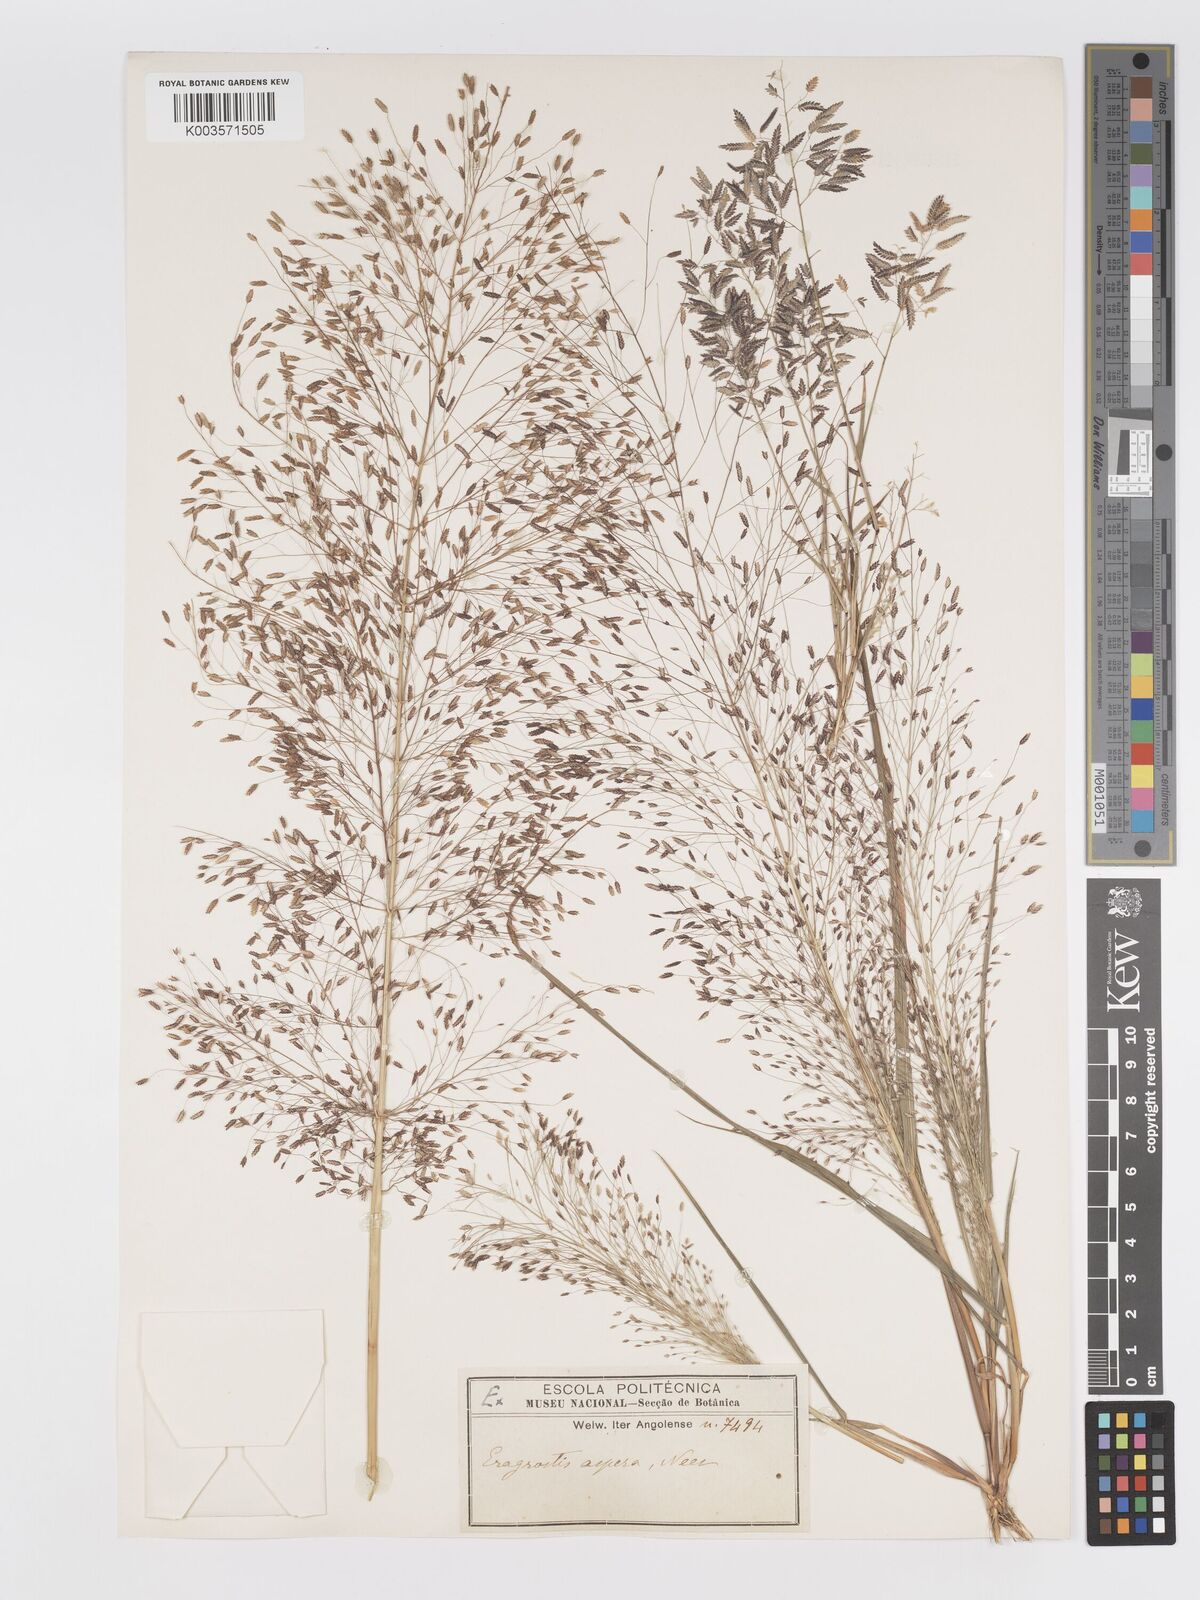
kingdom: Plantae
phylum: Tracheophyta
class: Liliopsida
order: Poales
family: Poaceae
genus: Eragrostis
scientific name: Eragrostis aspera
